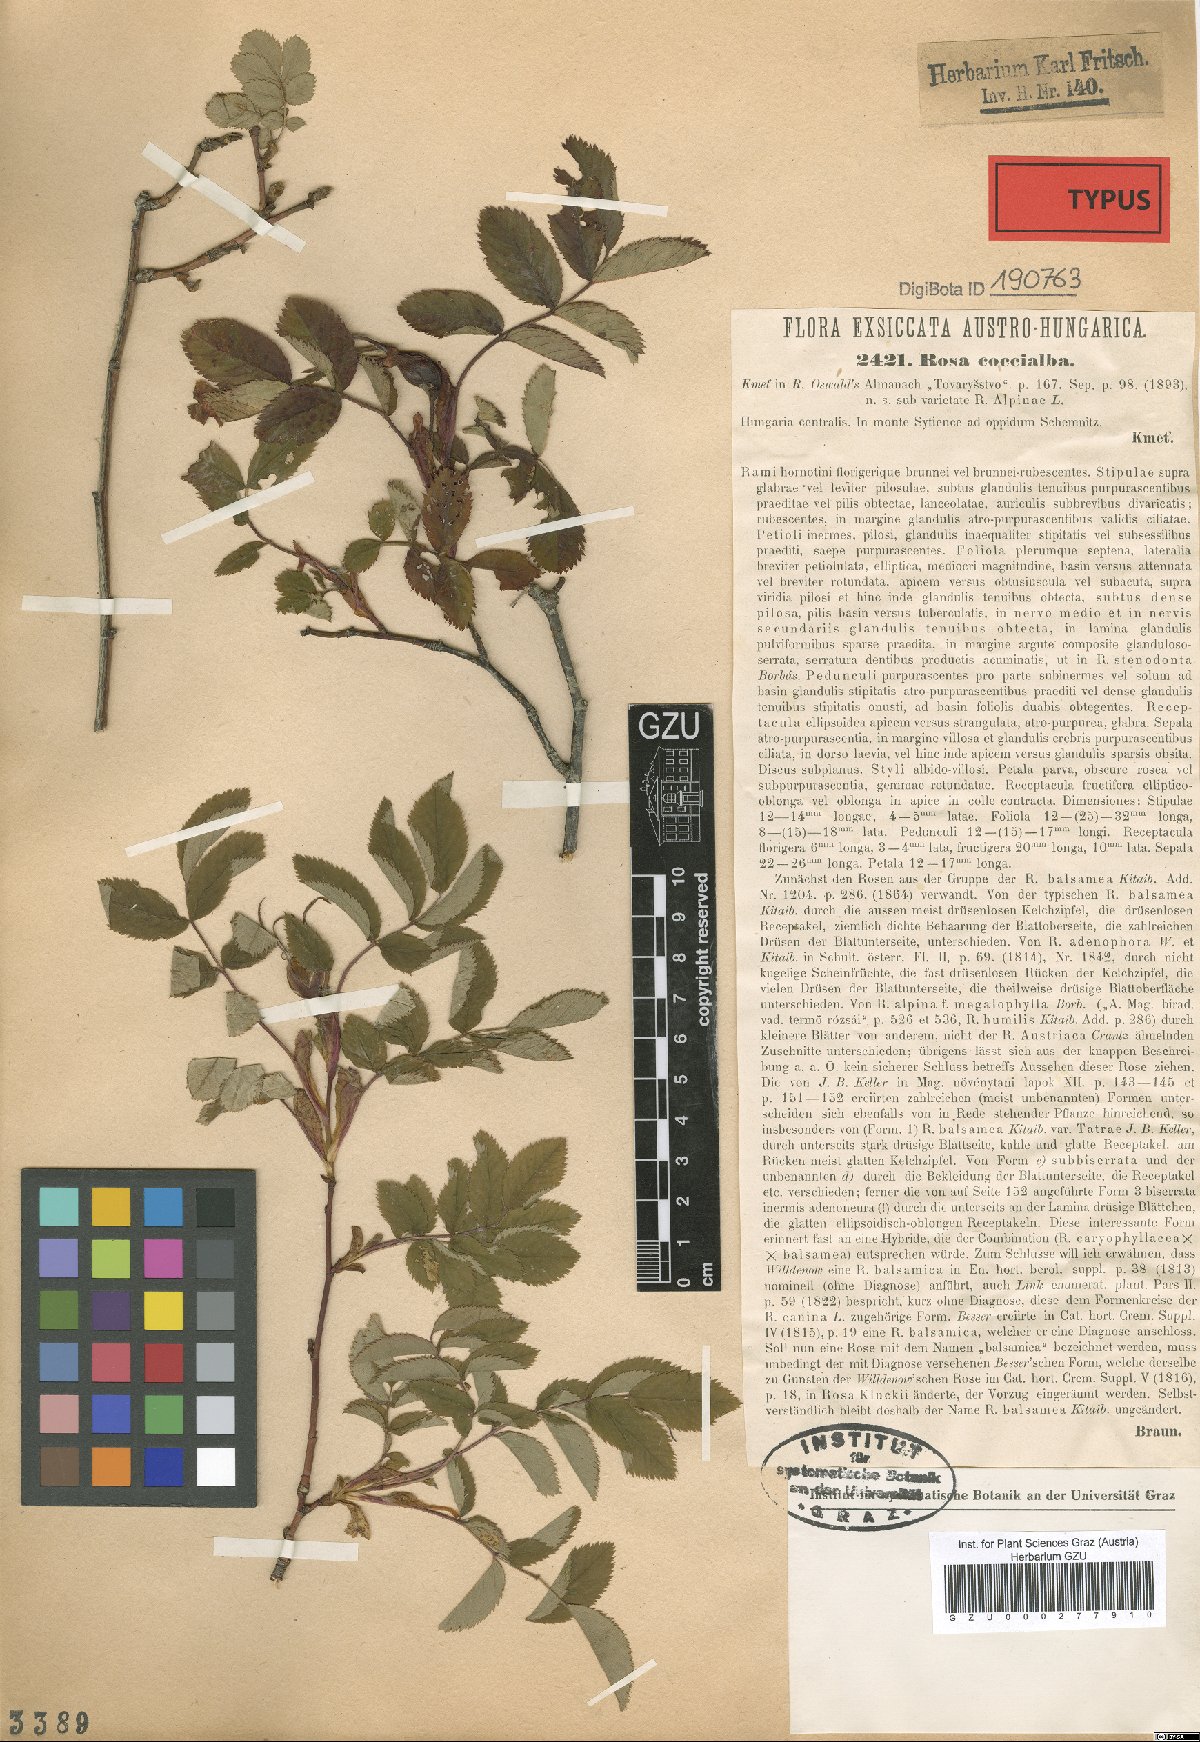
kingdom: Plantae
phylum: Tracheophyta
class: Magnoliopsida
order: Rosales
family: Rosaceae
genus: Rosa
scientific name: Rosa pendulina
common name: Alpine rose
